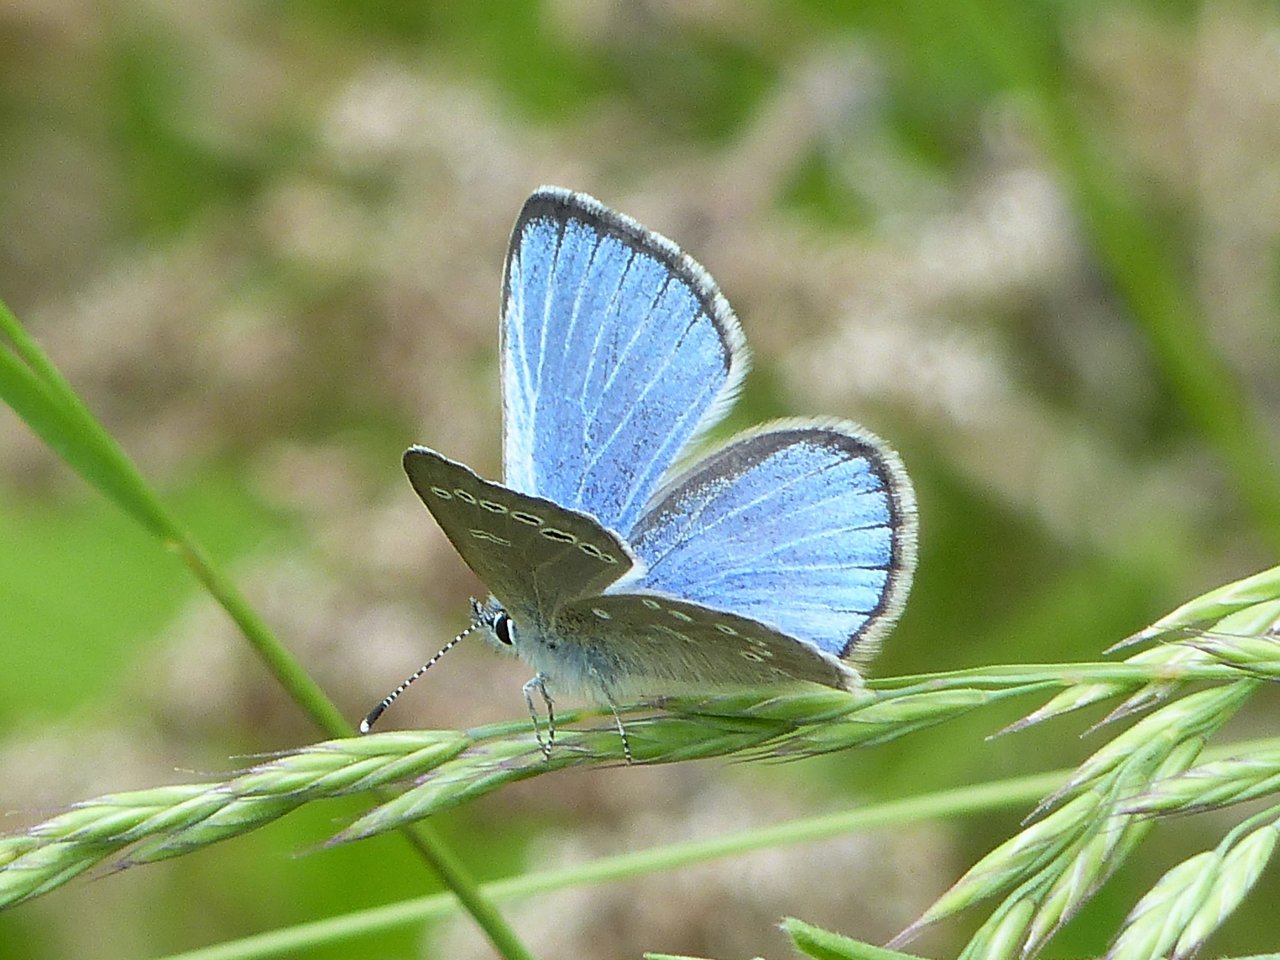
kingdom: Animalia
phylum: Arthropoda
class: Insecta
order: Lepidoptera
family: Lycaenidae
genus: Glaucopsyche
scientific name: Glaucopsyche lygdamus
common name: Silvery Blue
